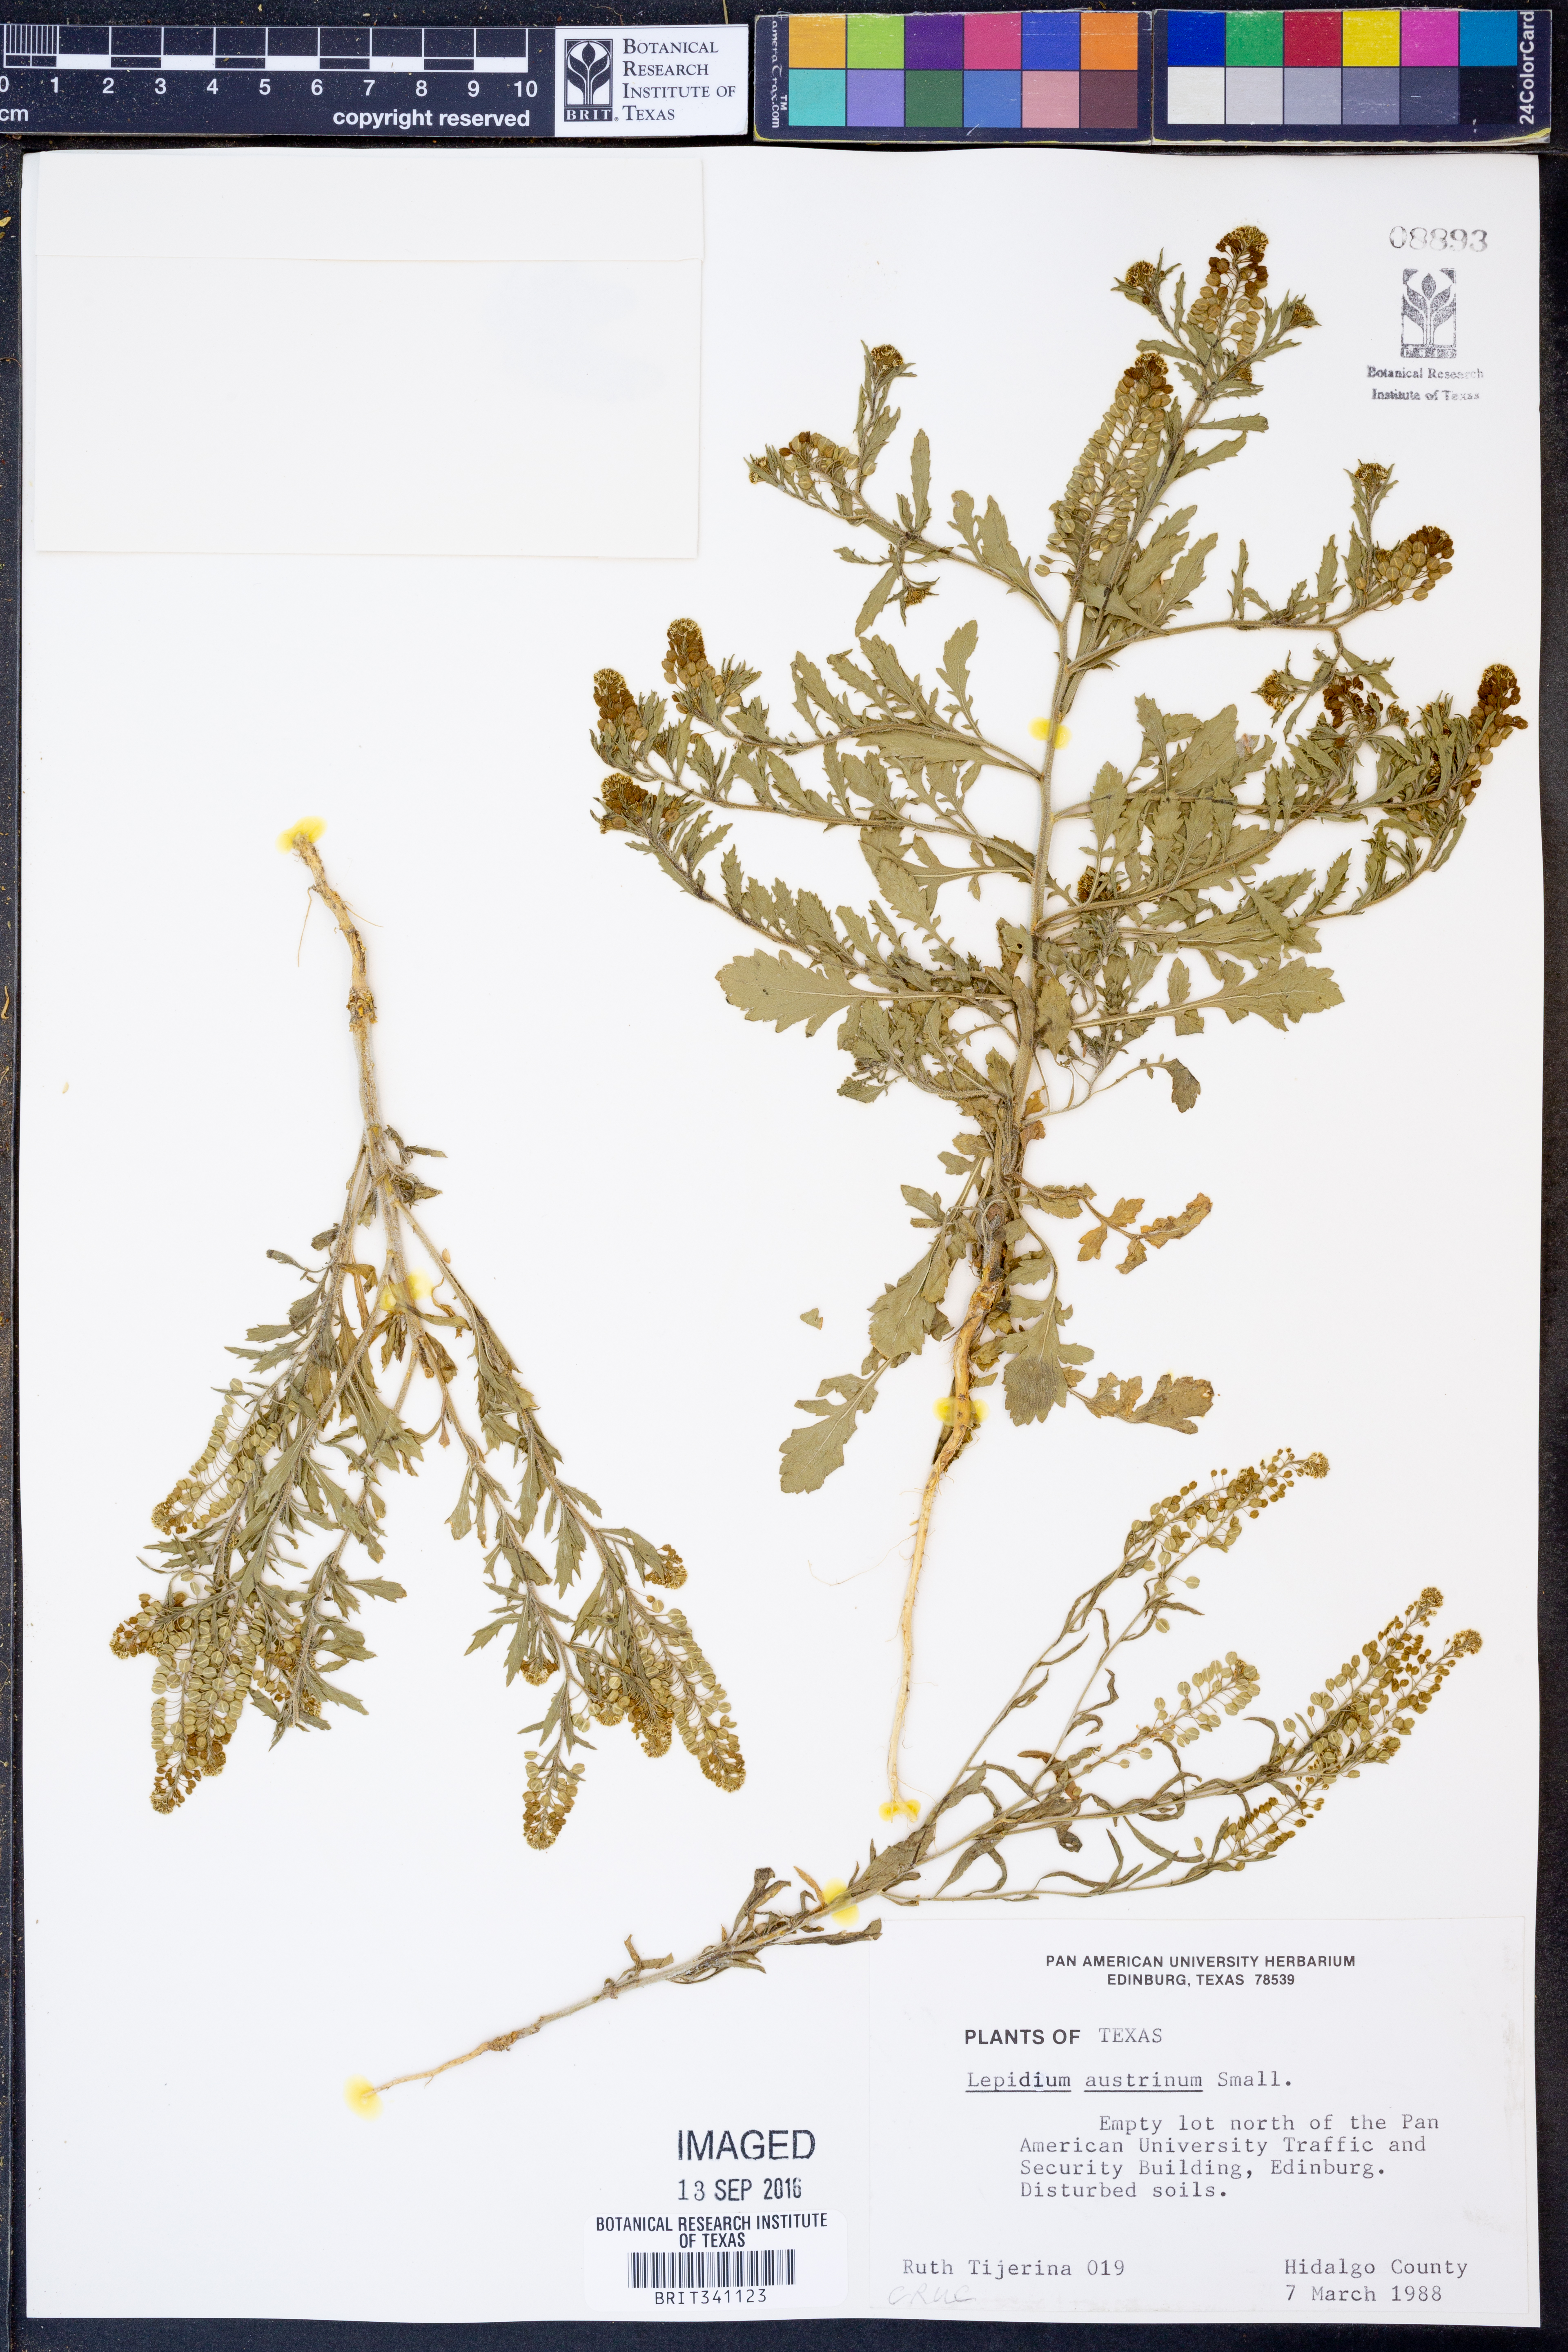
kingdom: Plantae
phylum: Tracheophyta
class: Magnoliopsida
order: Brassicales
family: Brassicaceae
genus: Lepidium
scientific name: Lepidium austrinum
